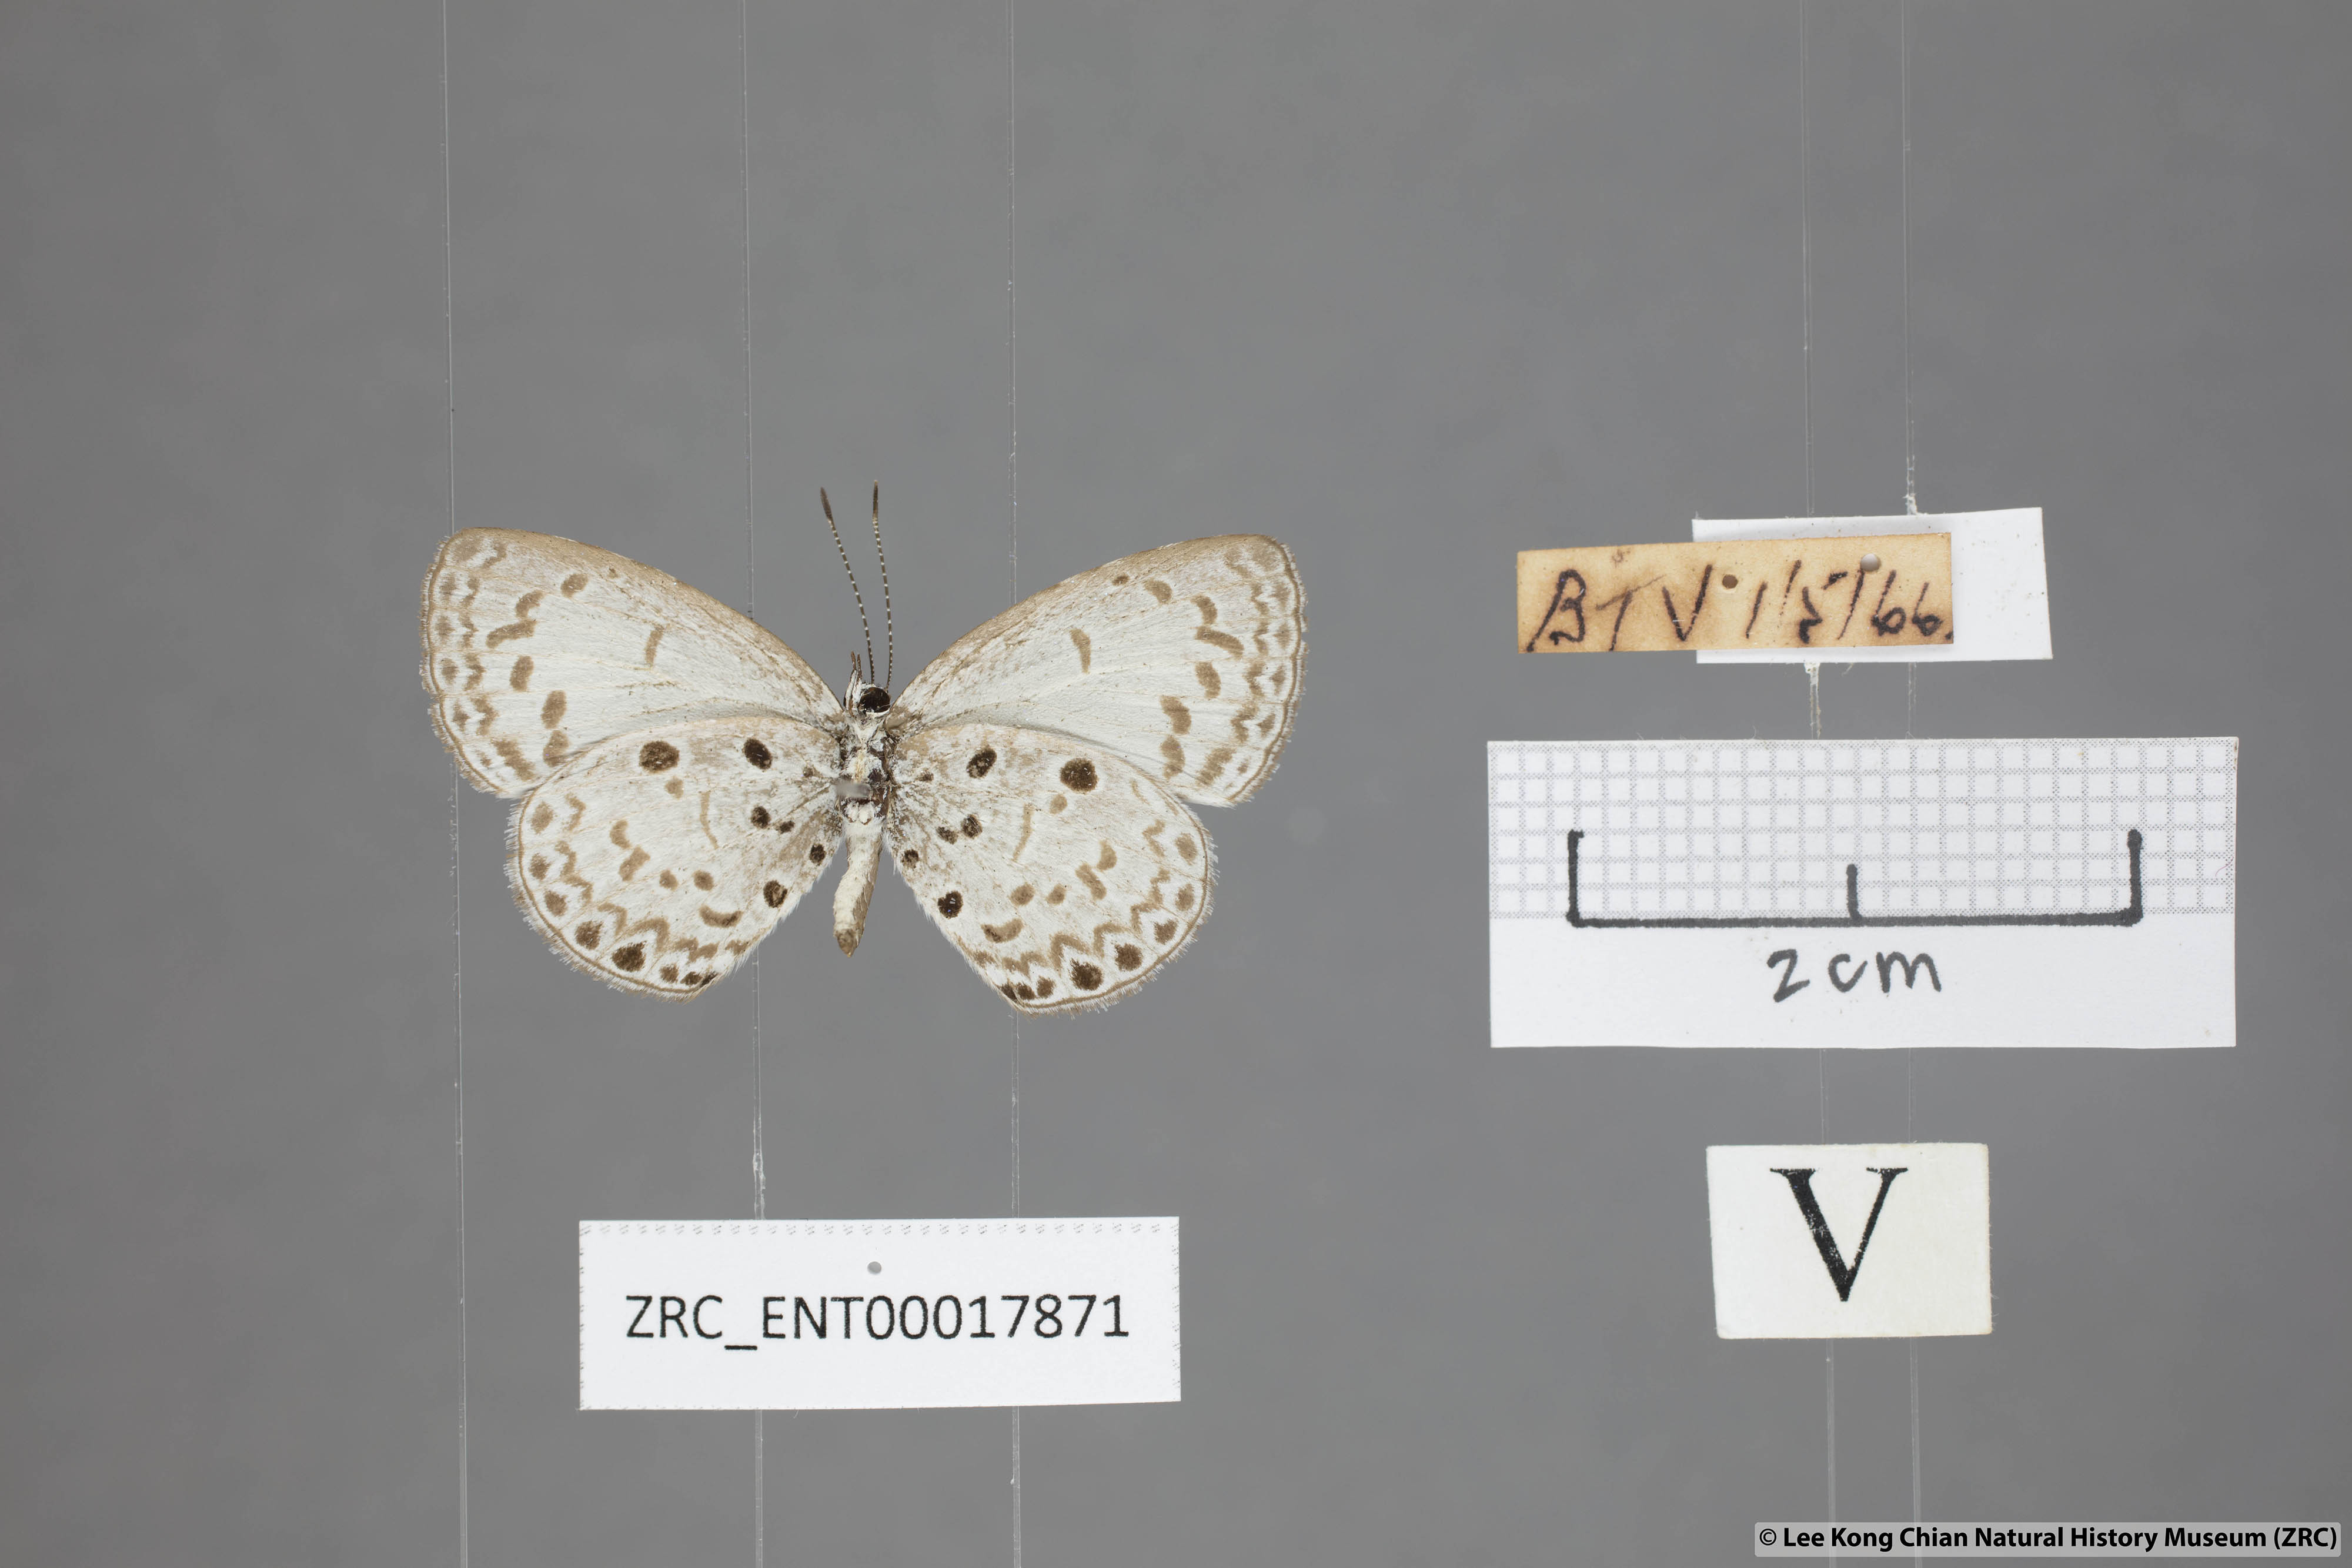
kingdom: Animalia
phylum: Arthropoda
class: Insecta
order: Lepidoptera
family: Lycaenidae
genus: Acytolepis
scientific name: Acytolepis puspa
